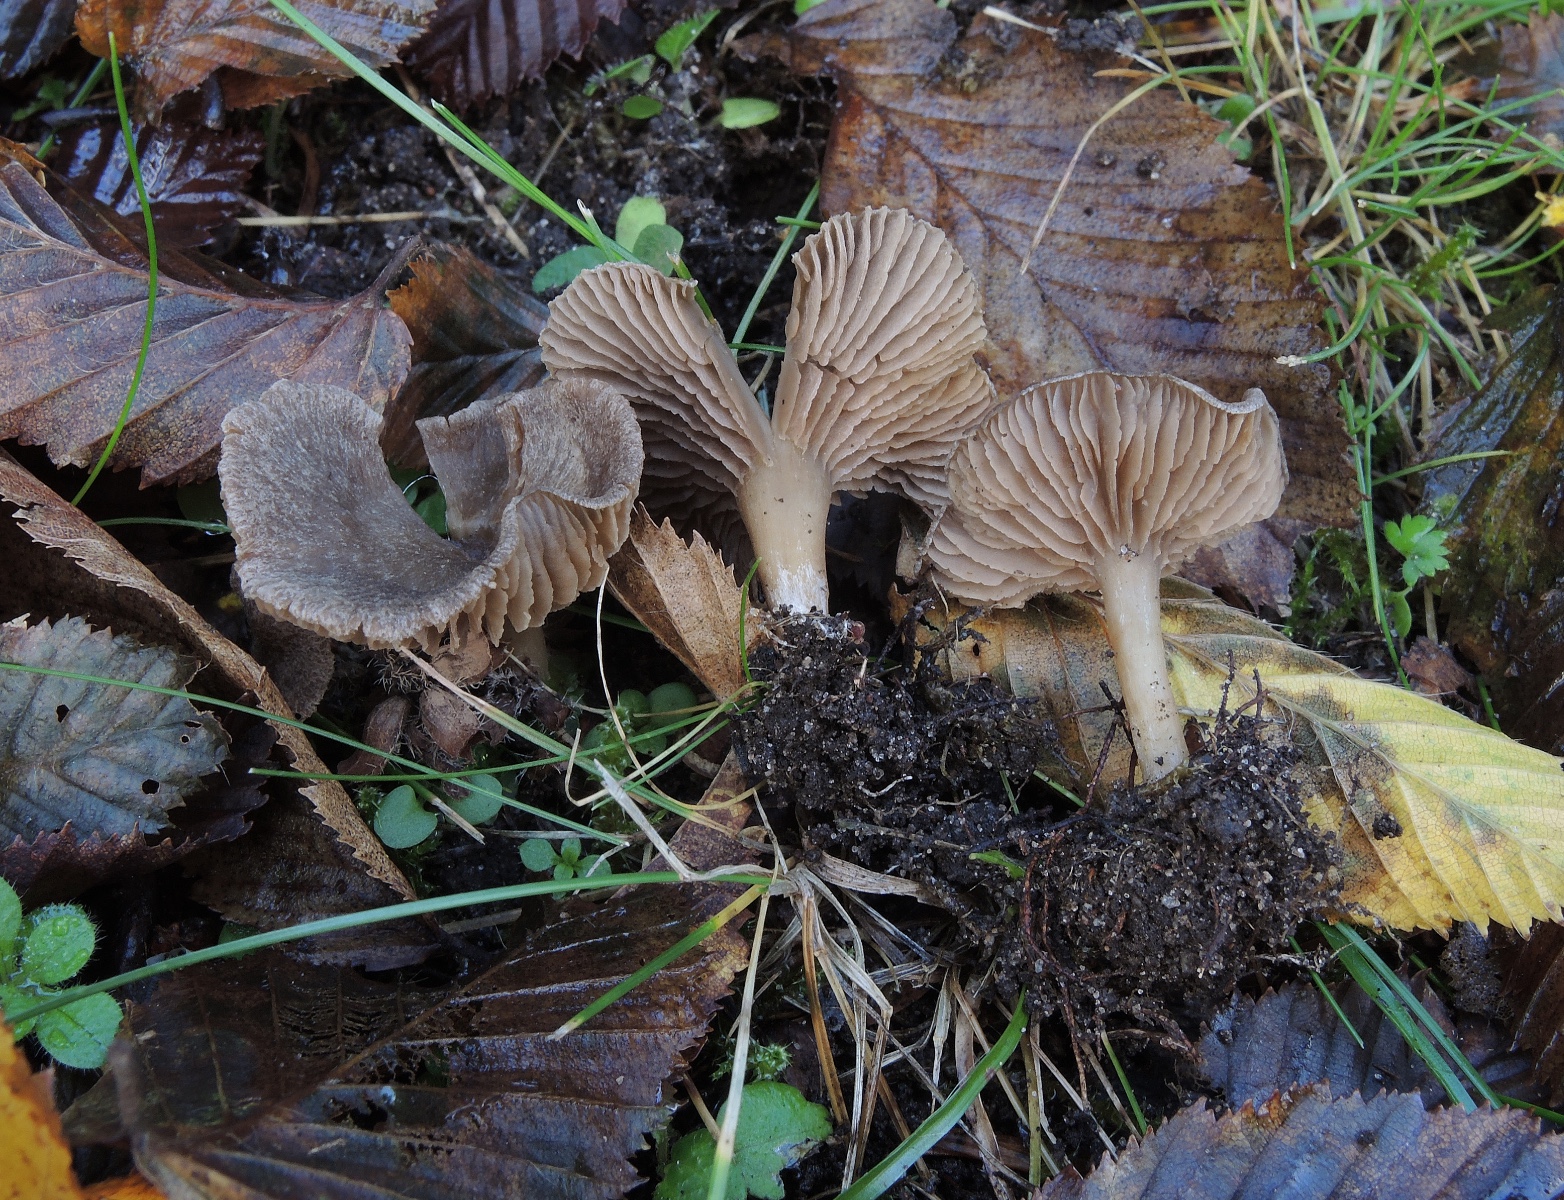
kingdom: Fungi
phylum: Basidiomycota
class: Agaricomycetes
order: Agaricales
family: Entolomataceae
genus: Entoloma
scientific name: Entoloma undatum
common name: bæltet rødblad
